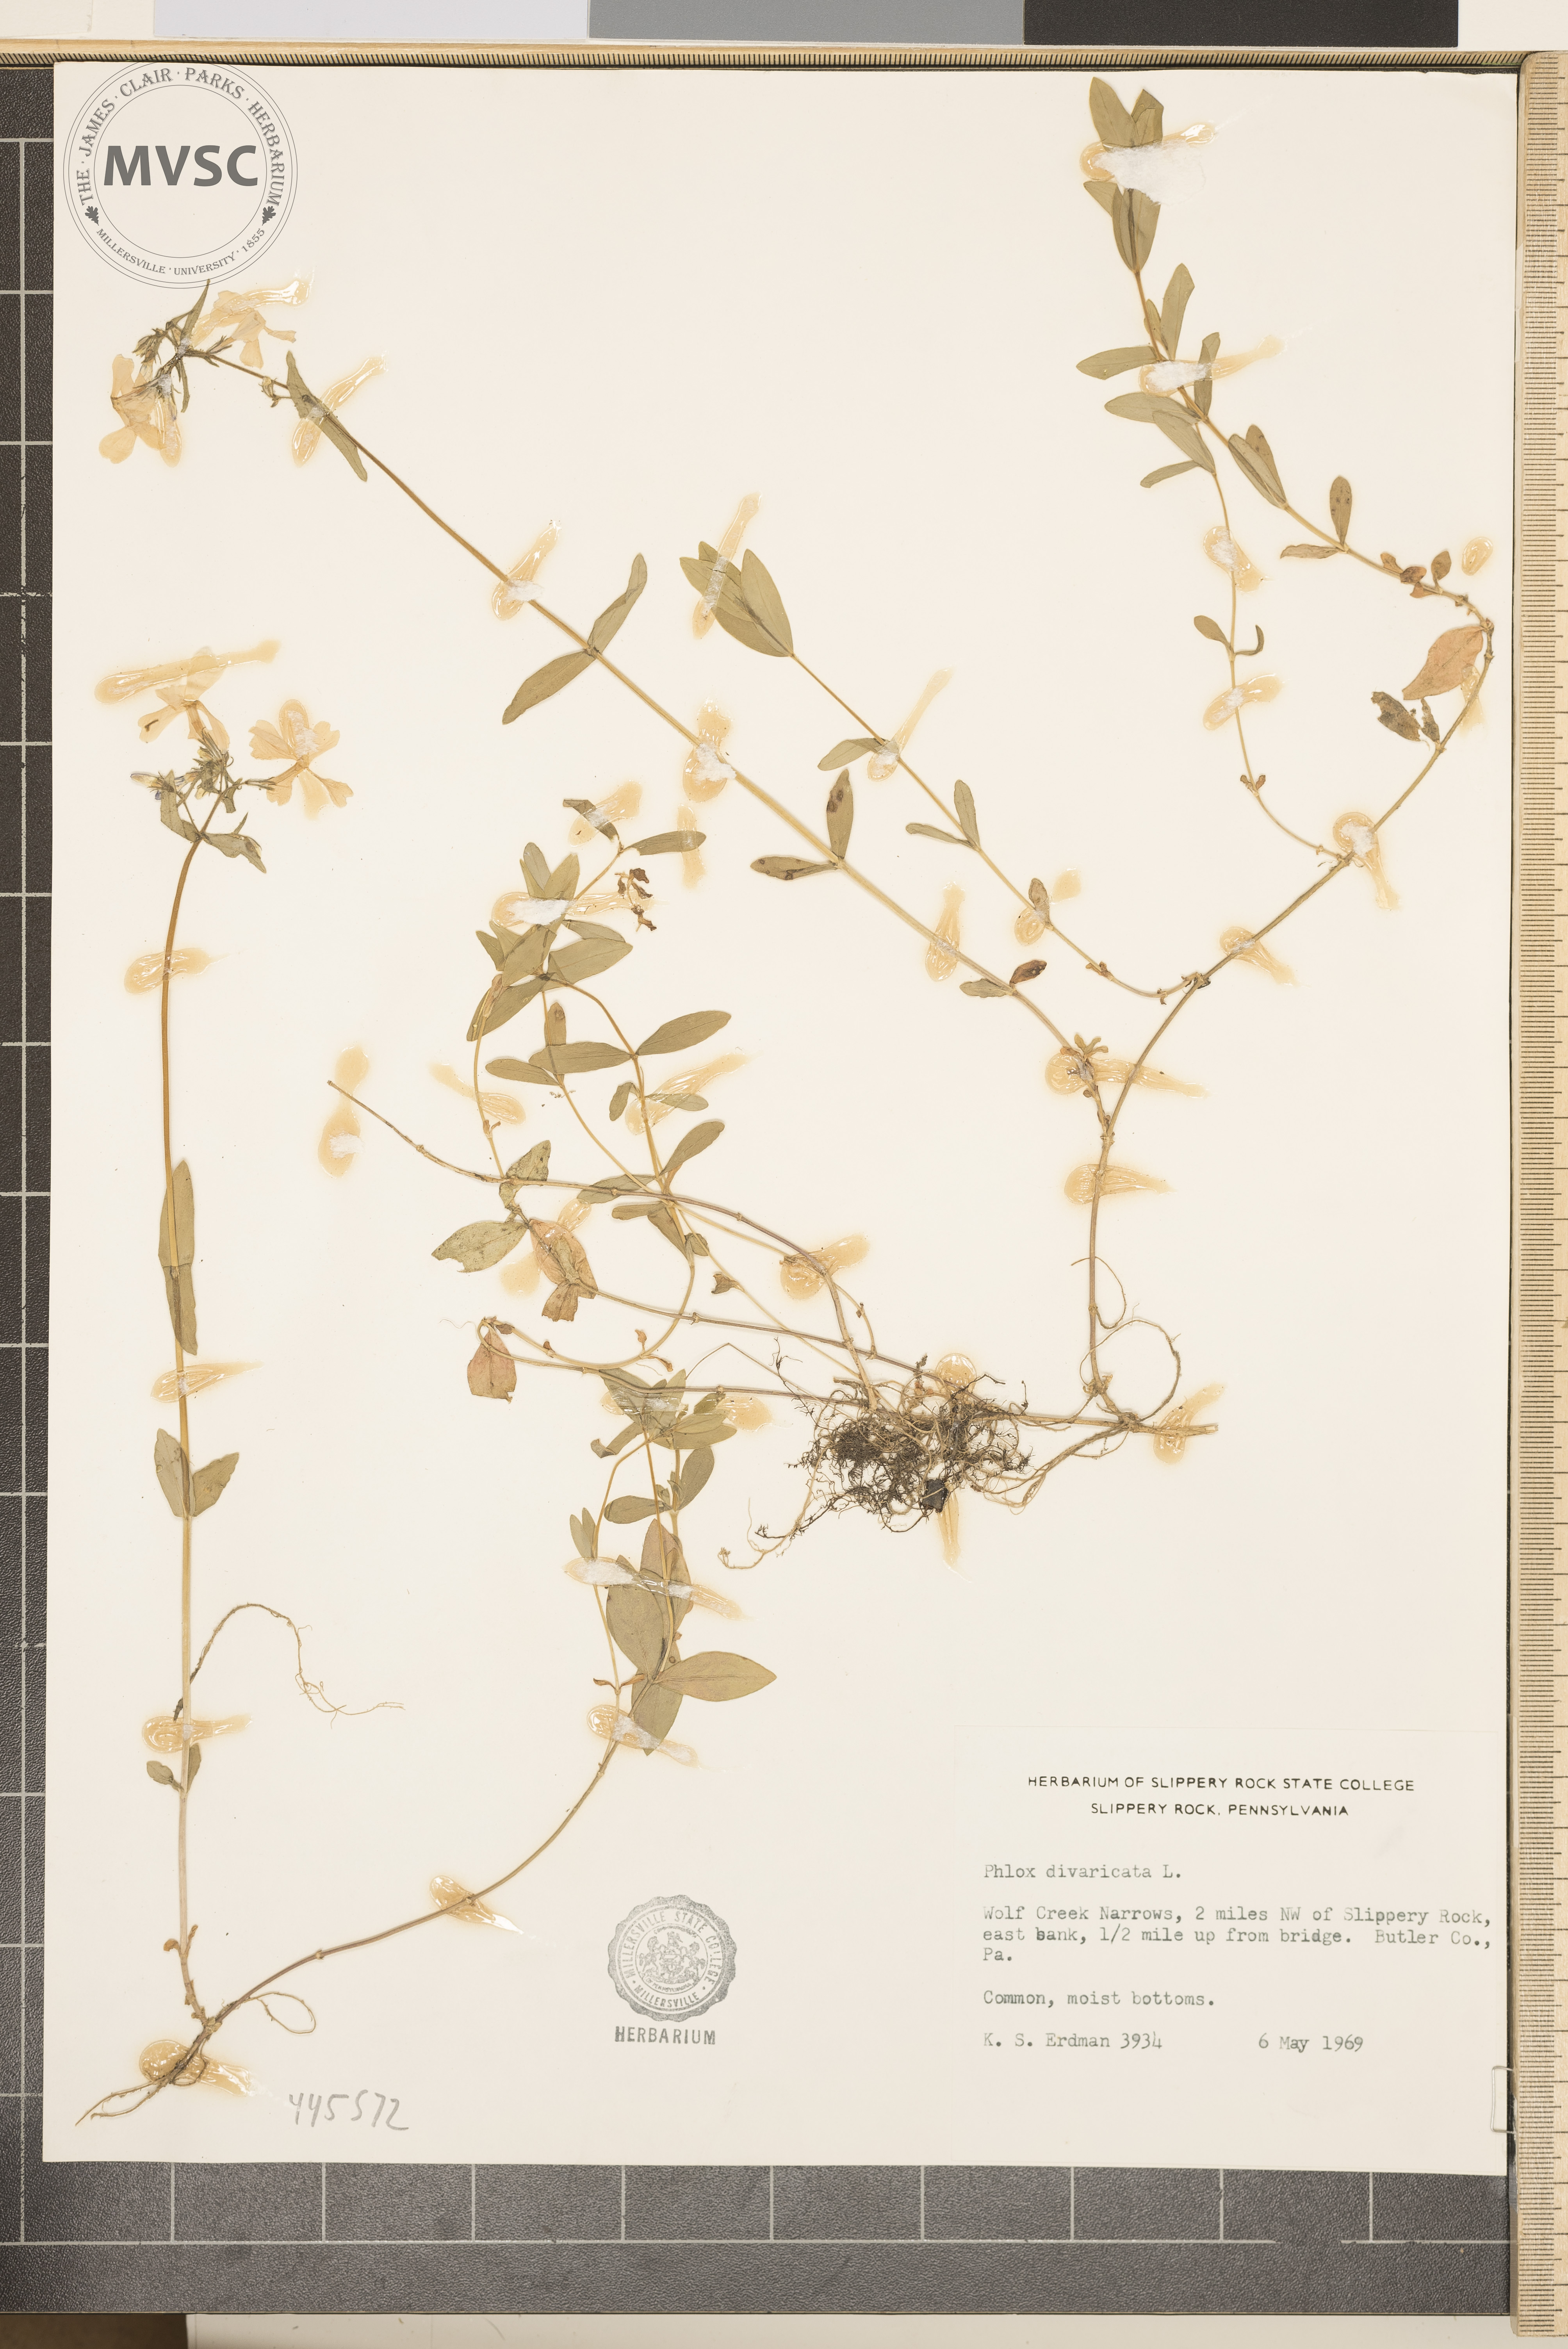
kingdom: Plantae
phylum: Tracheophyta
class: Magnoliopsida
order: Ericales
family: Polemoniaceae
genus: Phlox
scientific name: Phlox divaricata
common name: Blue phlox
